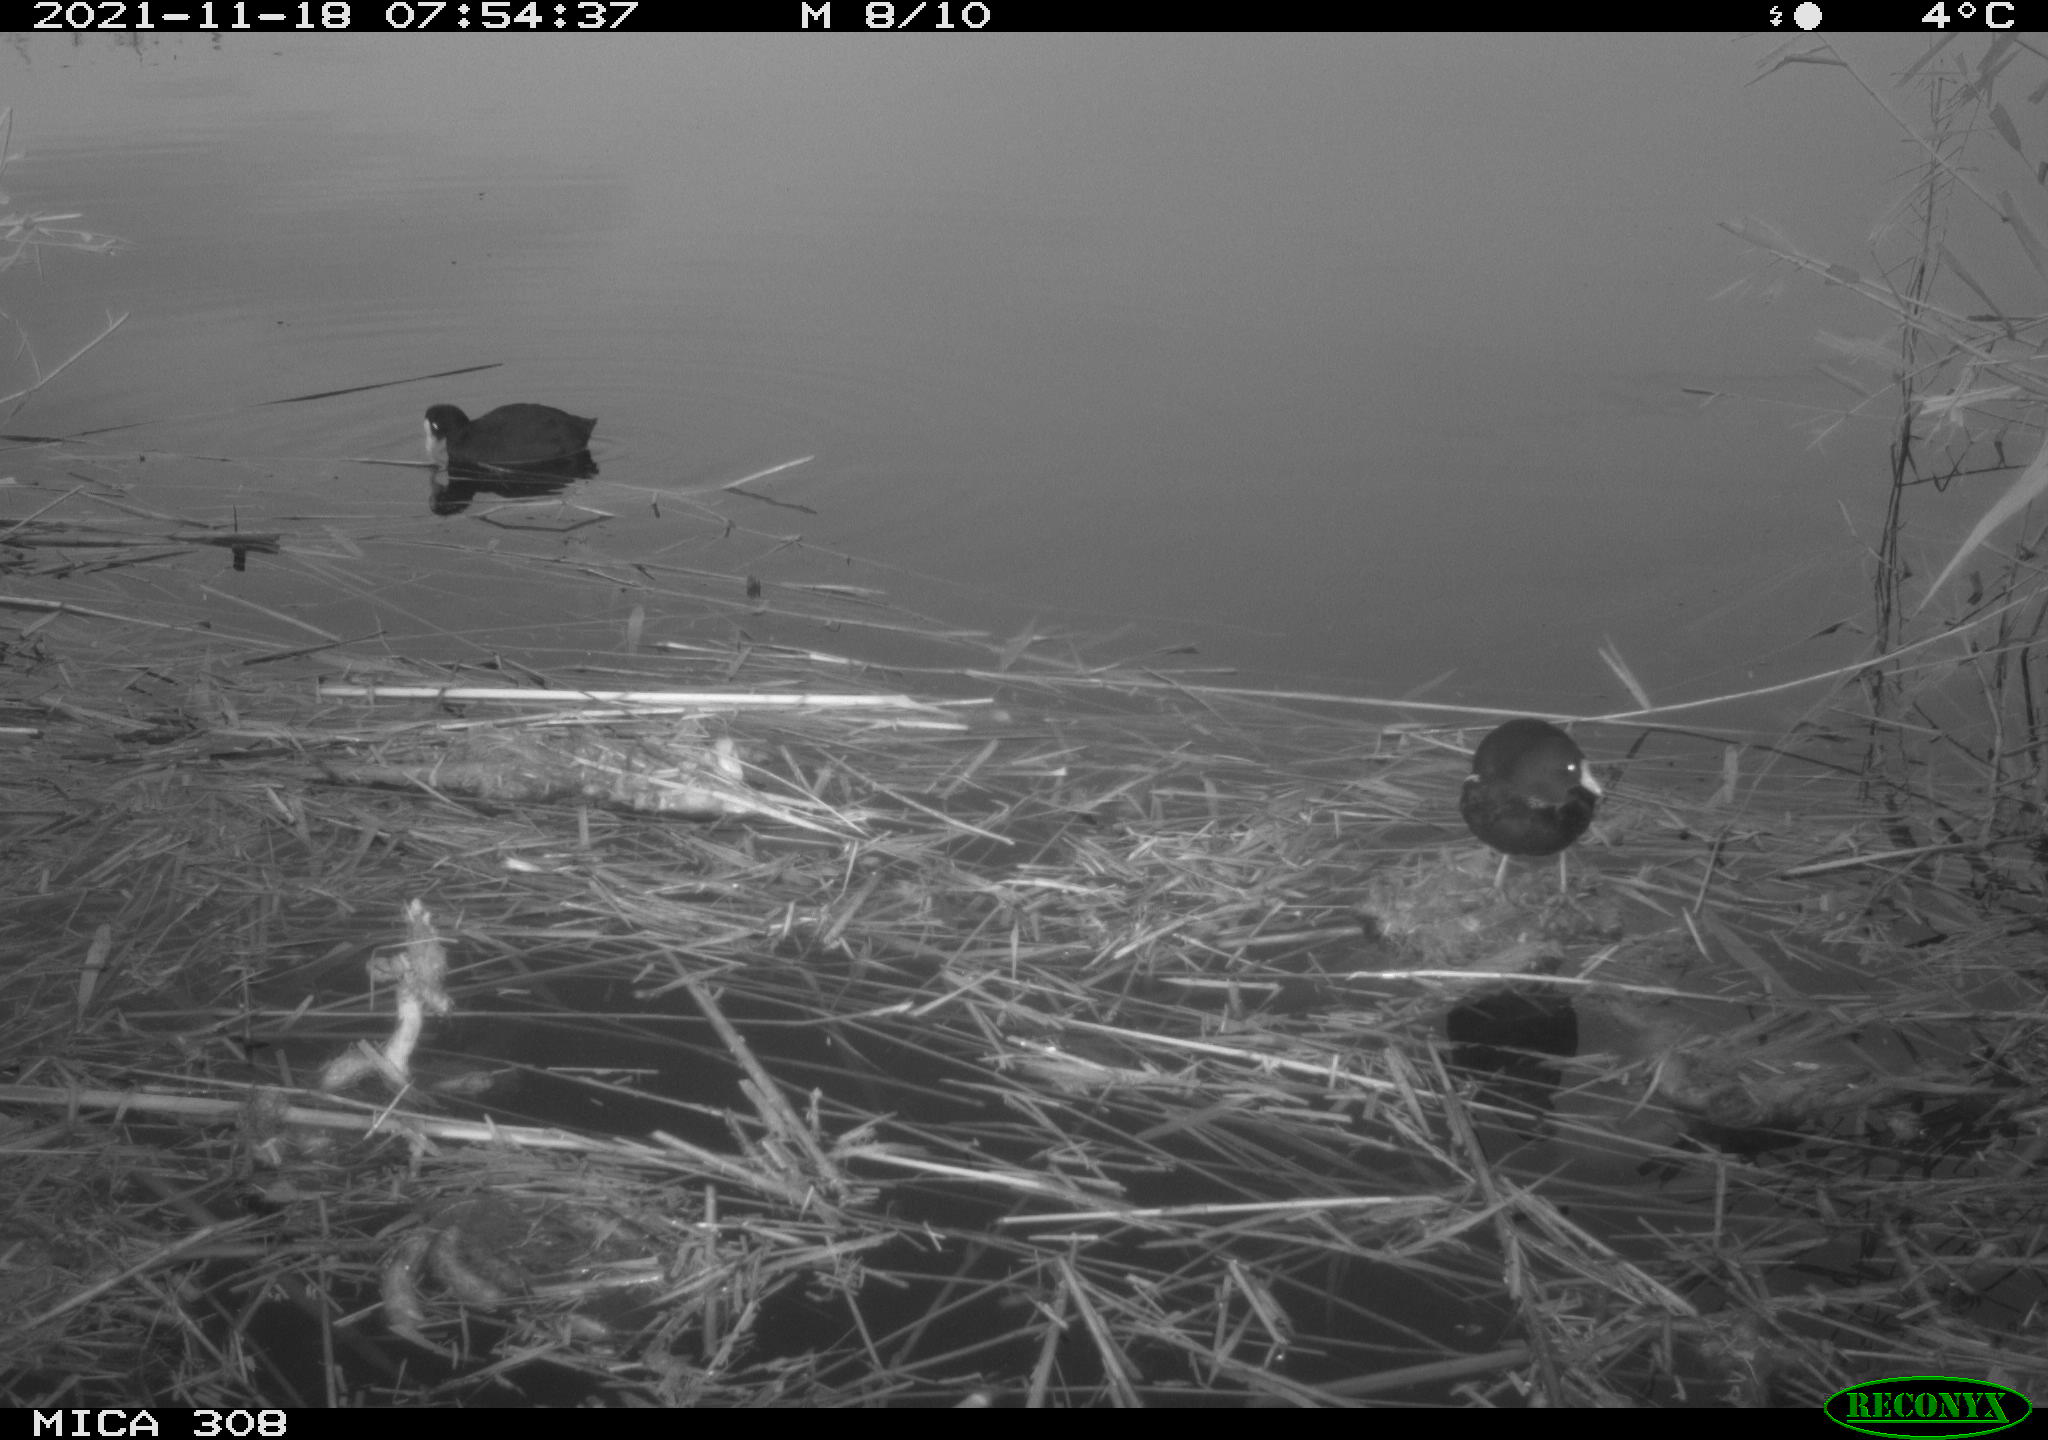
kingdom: Animalia
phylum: Chordata
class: Aves
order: Gruiformes
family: Rallidae
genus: Fulica
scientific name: Fulica atra
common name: Eurasian coot
